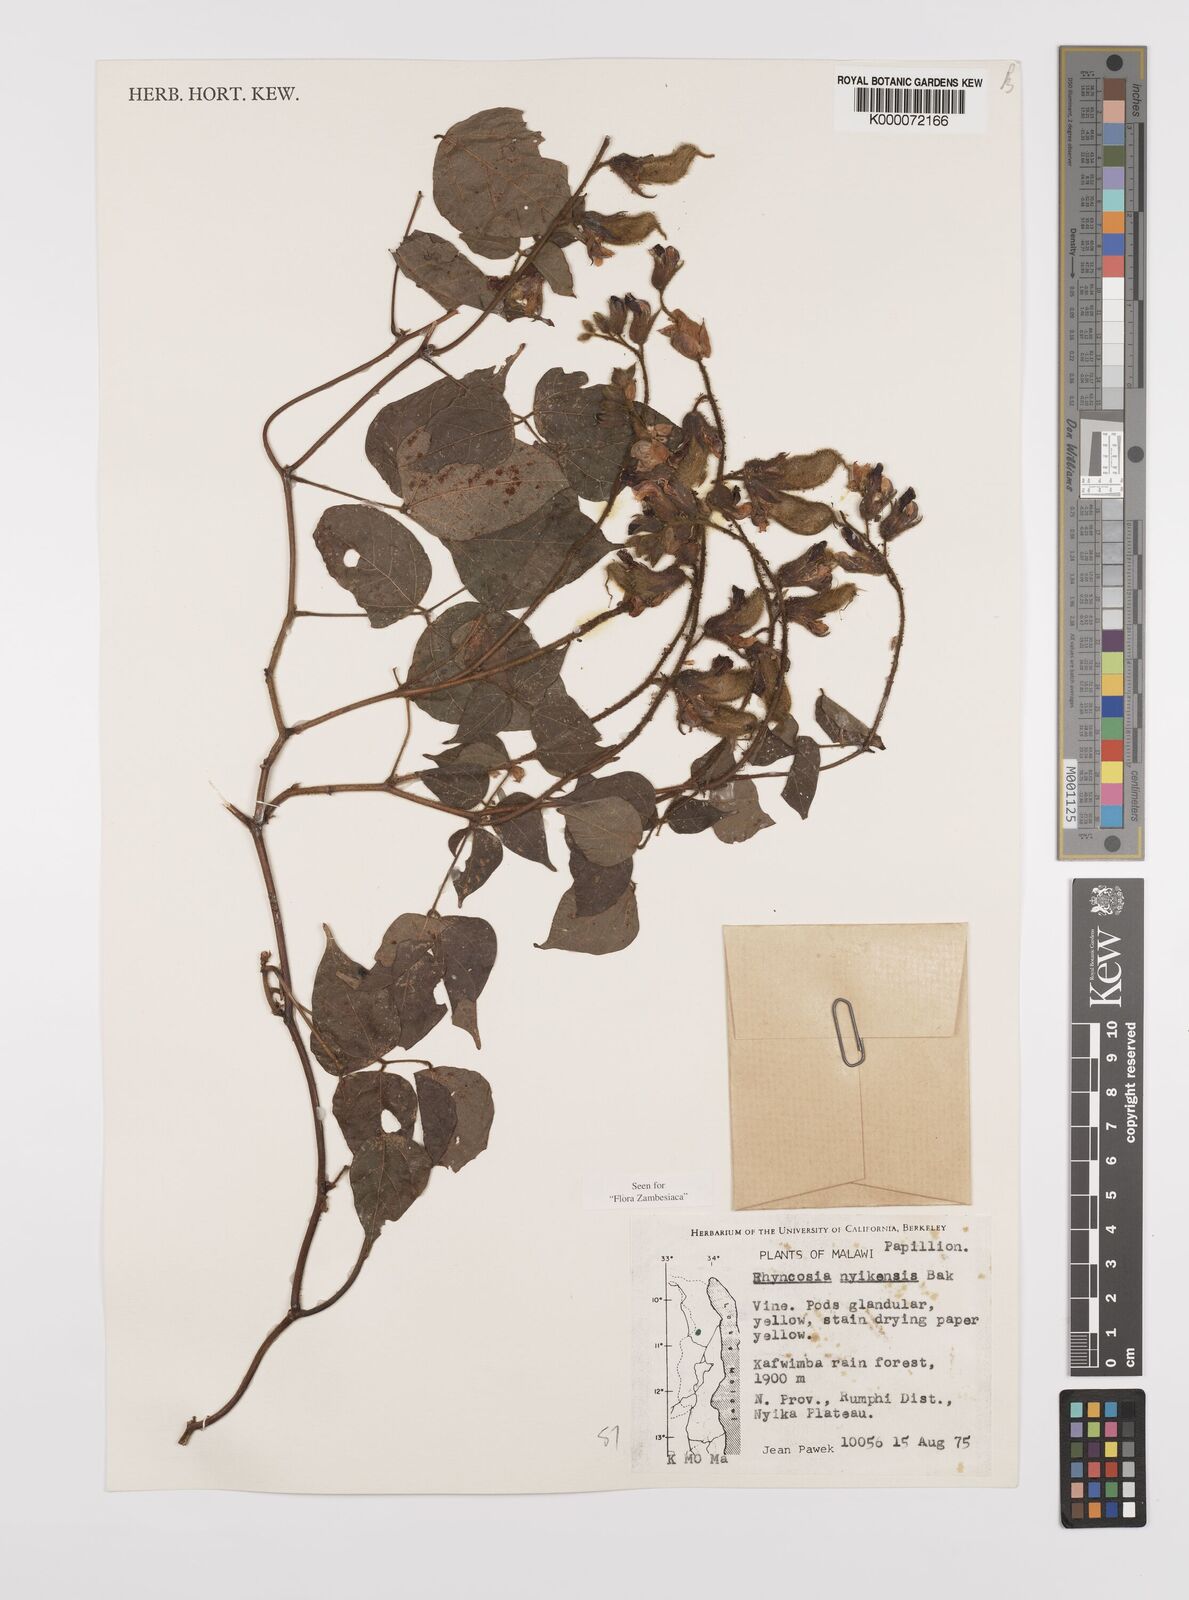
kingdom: Plantae
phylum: Tracheophyta
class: Magnoliopsida
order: Fabales
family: Fabaceae
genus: Rhynchosia
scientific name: Rhynchosia nyikensis
